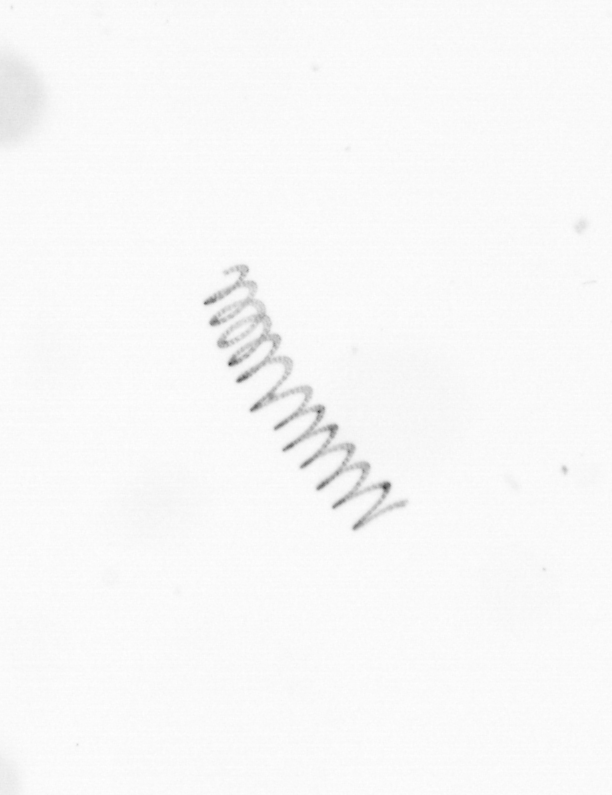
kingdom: Chromista
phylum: Ochrophyta
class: Bacillariophyceae
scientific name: Bacillariophyceae
